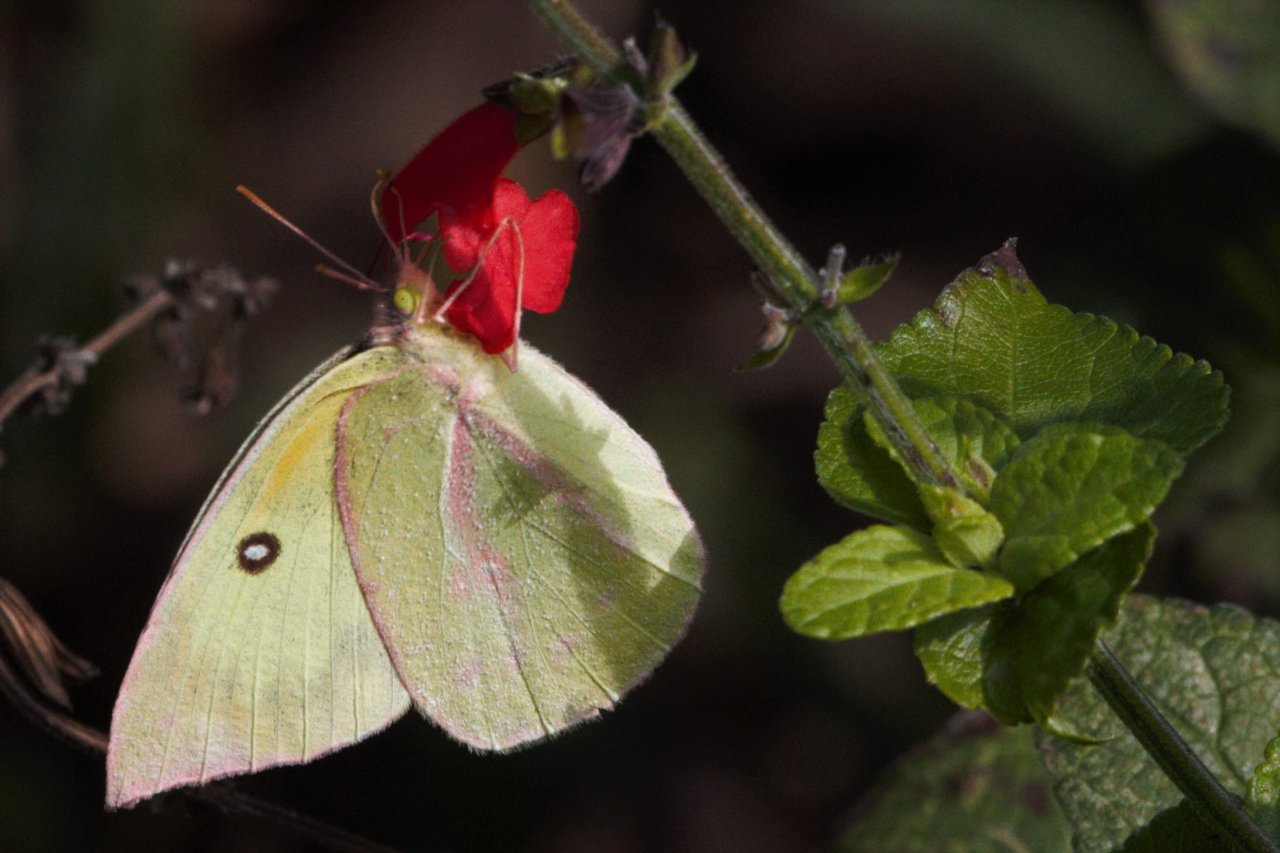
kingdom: Animalia
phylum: Arthropoda
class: Insecta
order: Lepidoptera
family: Pieridae
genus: Zerene
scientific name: Zerene cesonia
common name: Southern Dogface
